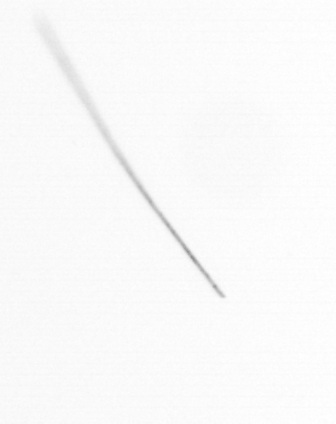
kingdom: Chromista
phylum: Ochrophyta
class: Bacillariophyceae
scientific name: Bacillariophyceae
